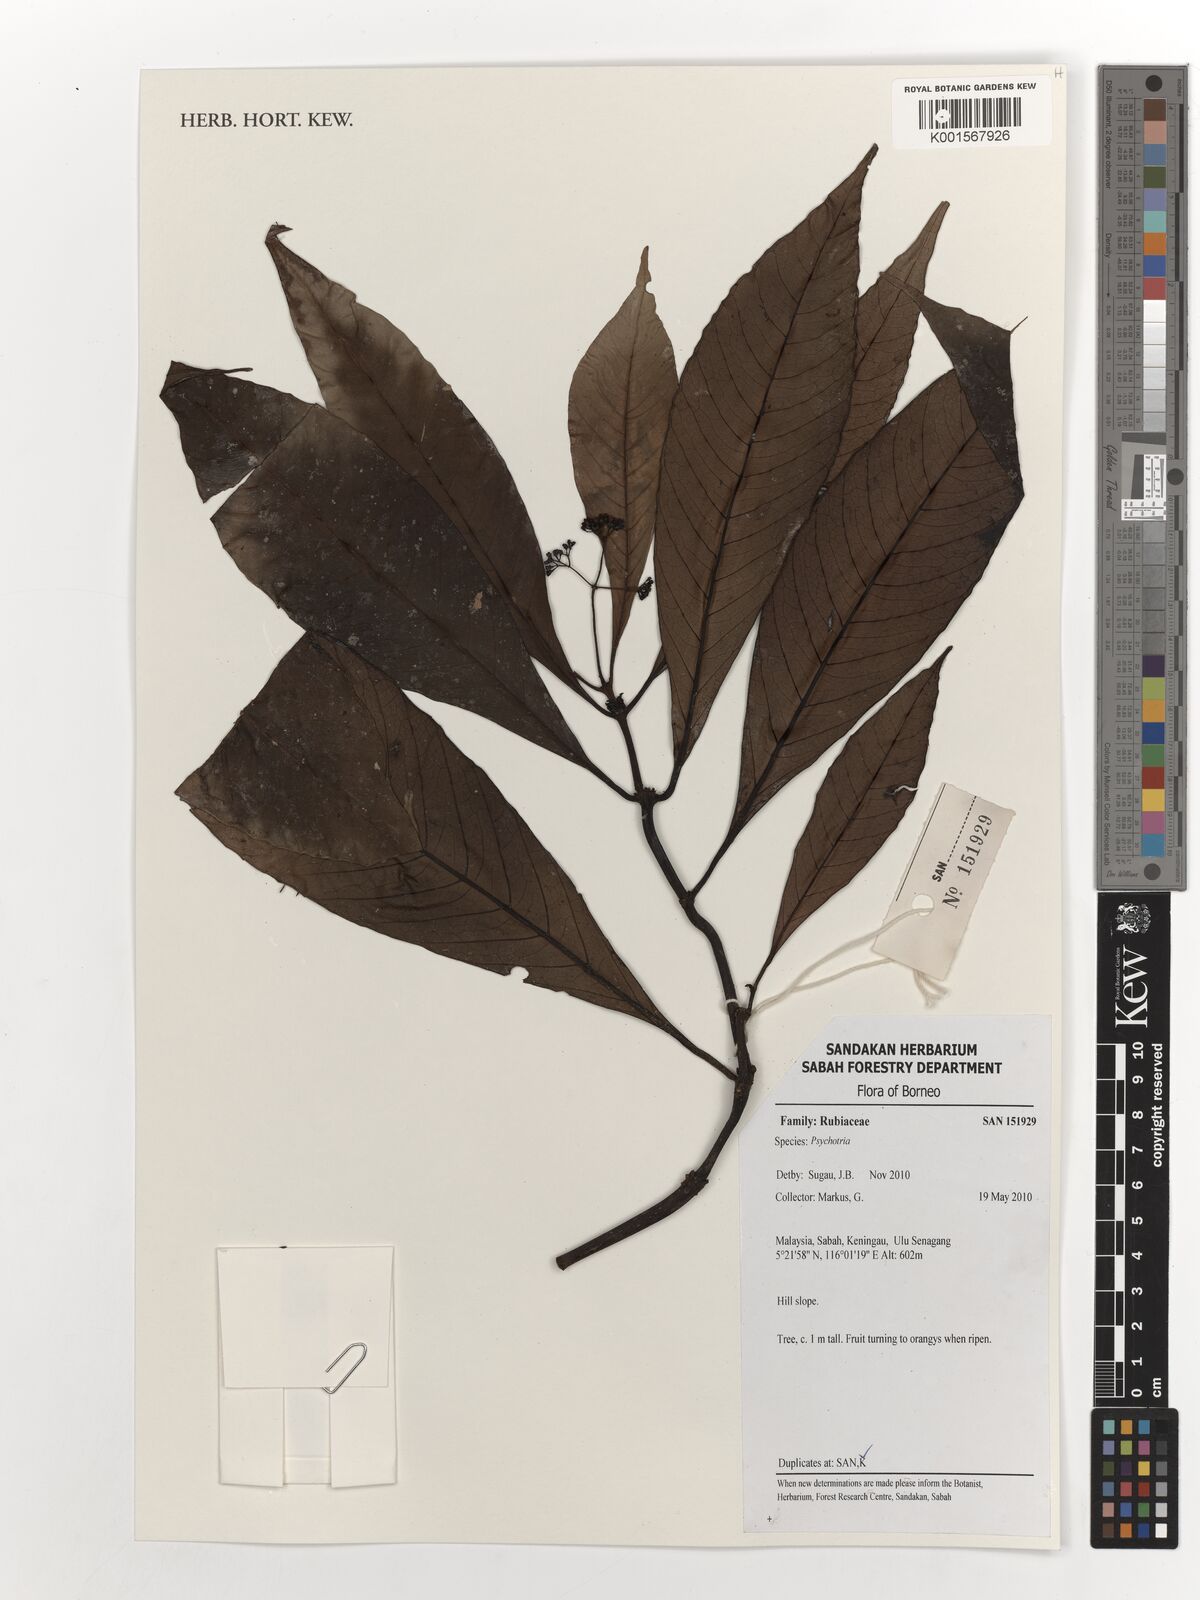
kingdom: Plantae
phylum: Tracheophyta
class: Magnoliopsida
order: Gentianales
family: Rubiaceae
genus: Psychotria
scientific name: Psychotria
